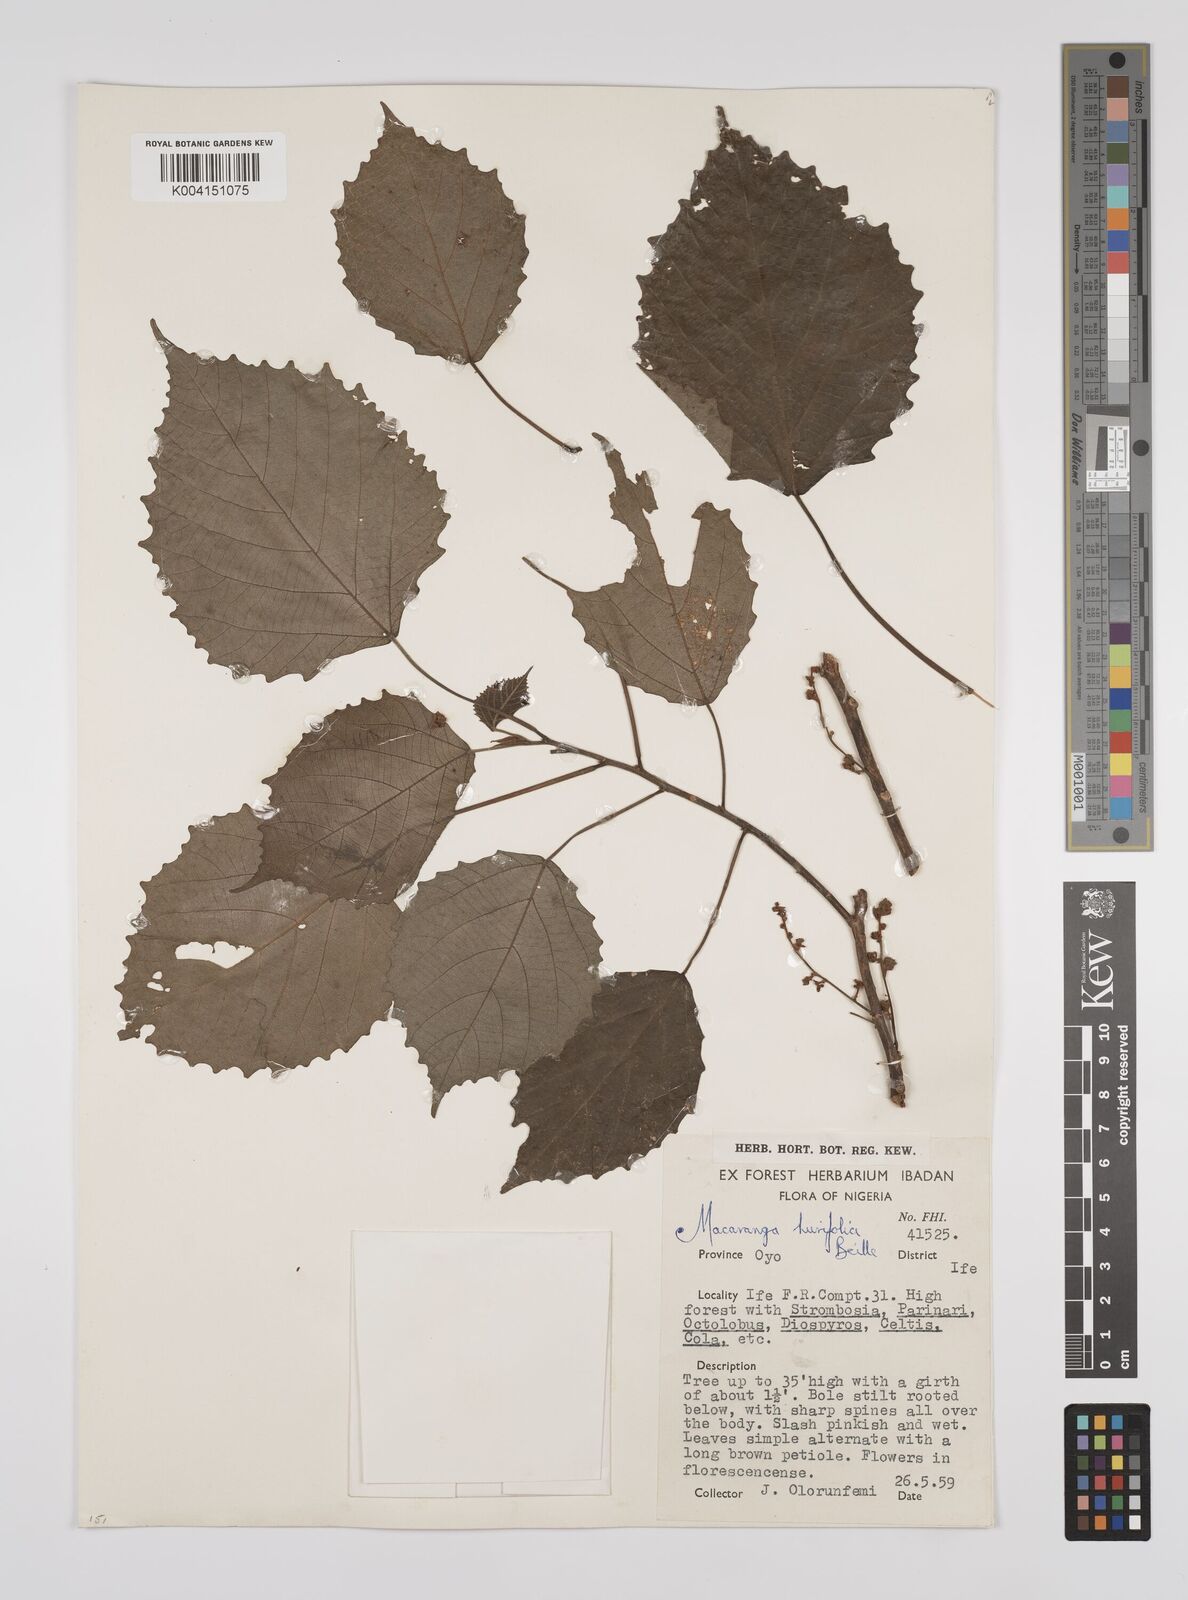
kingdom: Plantae
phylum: Tracheophyta
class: Magnoliopsida
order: Malpighiales
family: Euphorbiaceae
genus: Macaranga
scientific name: Macaranga hurifolia
